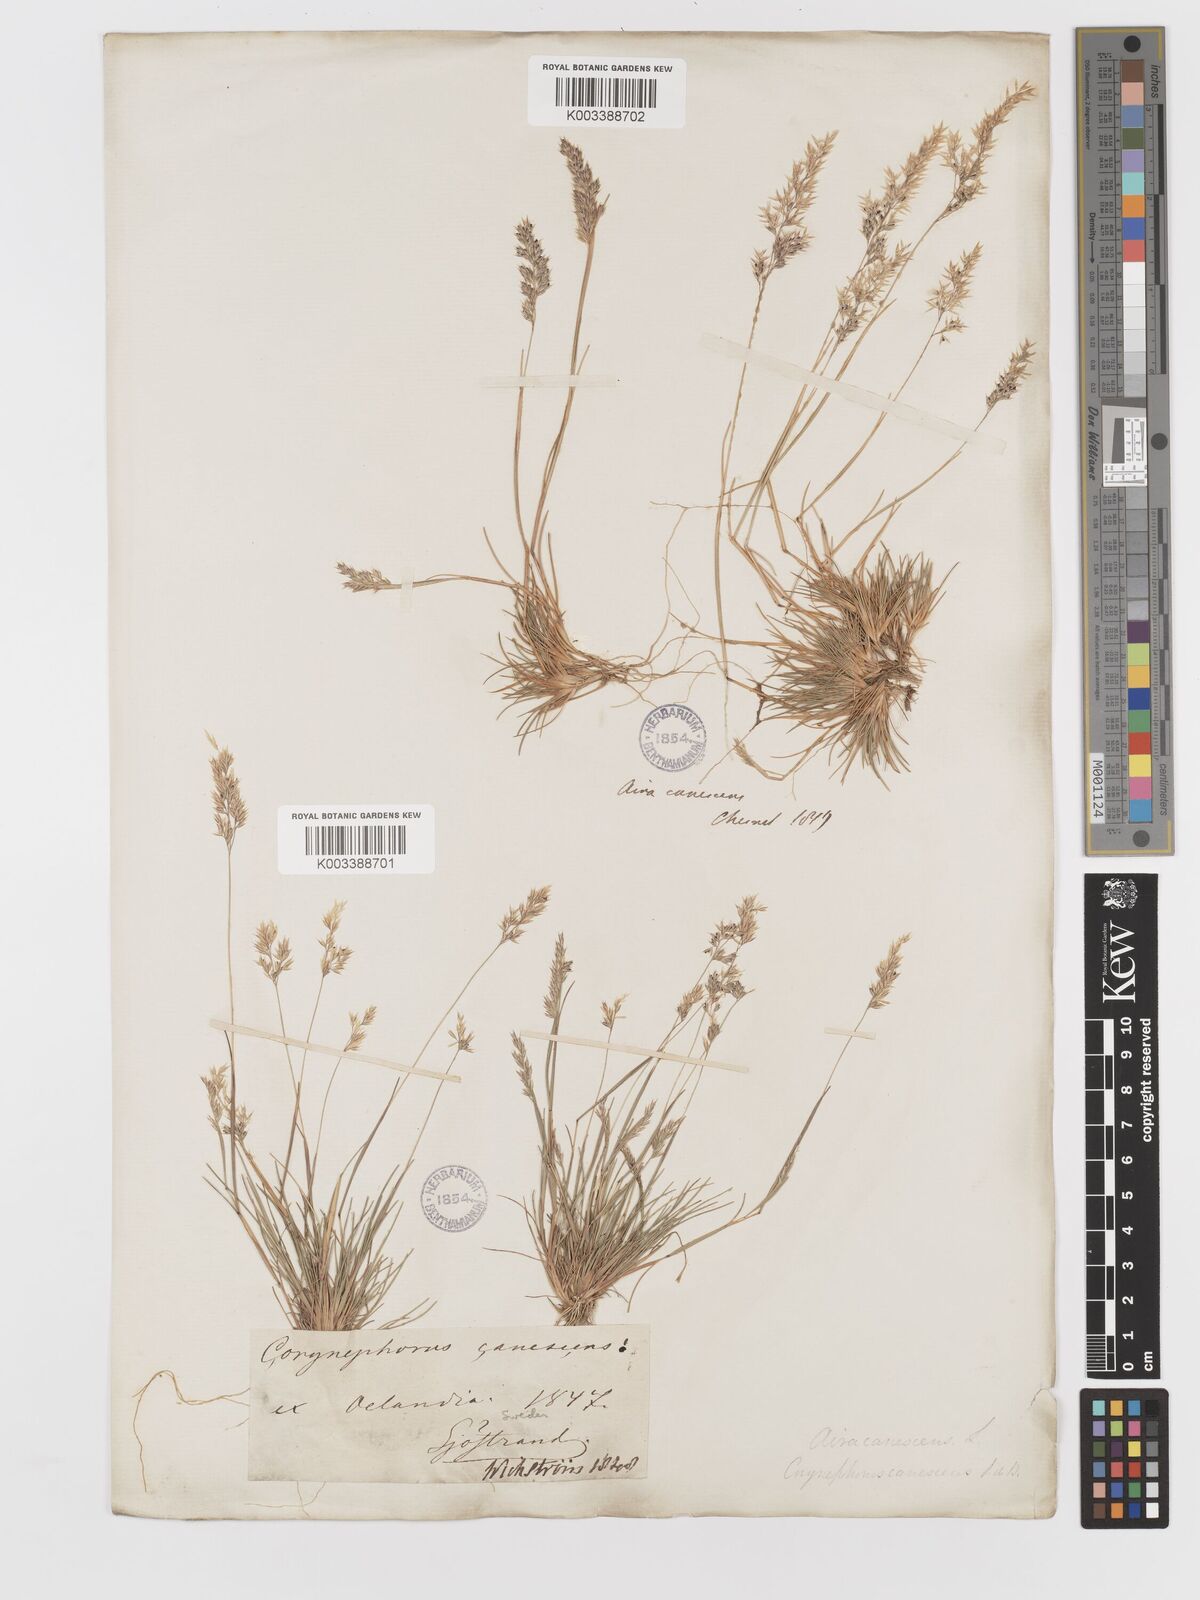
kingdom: Plantae
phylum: Tracheophyta
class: Liliopsida
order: Poales
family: Poaceae
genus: Corynephorus
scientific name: Corynephorus canescens
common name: Grey hair-grass
